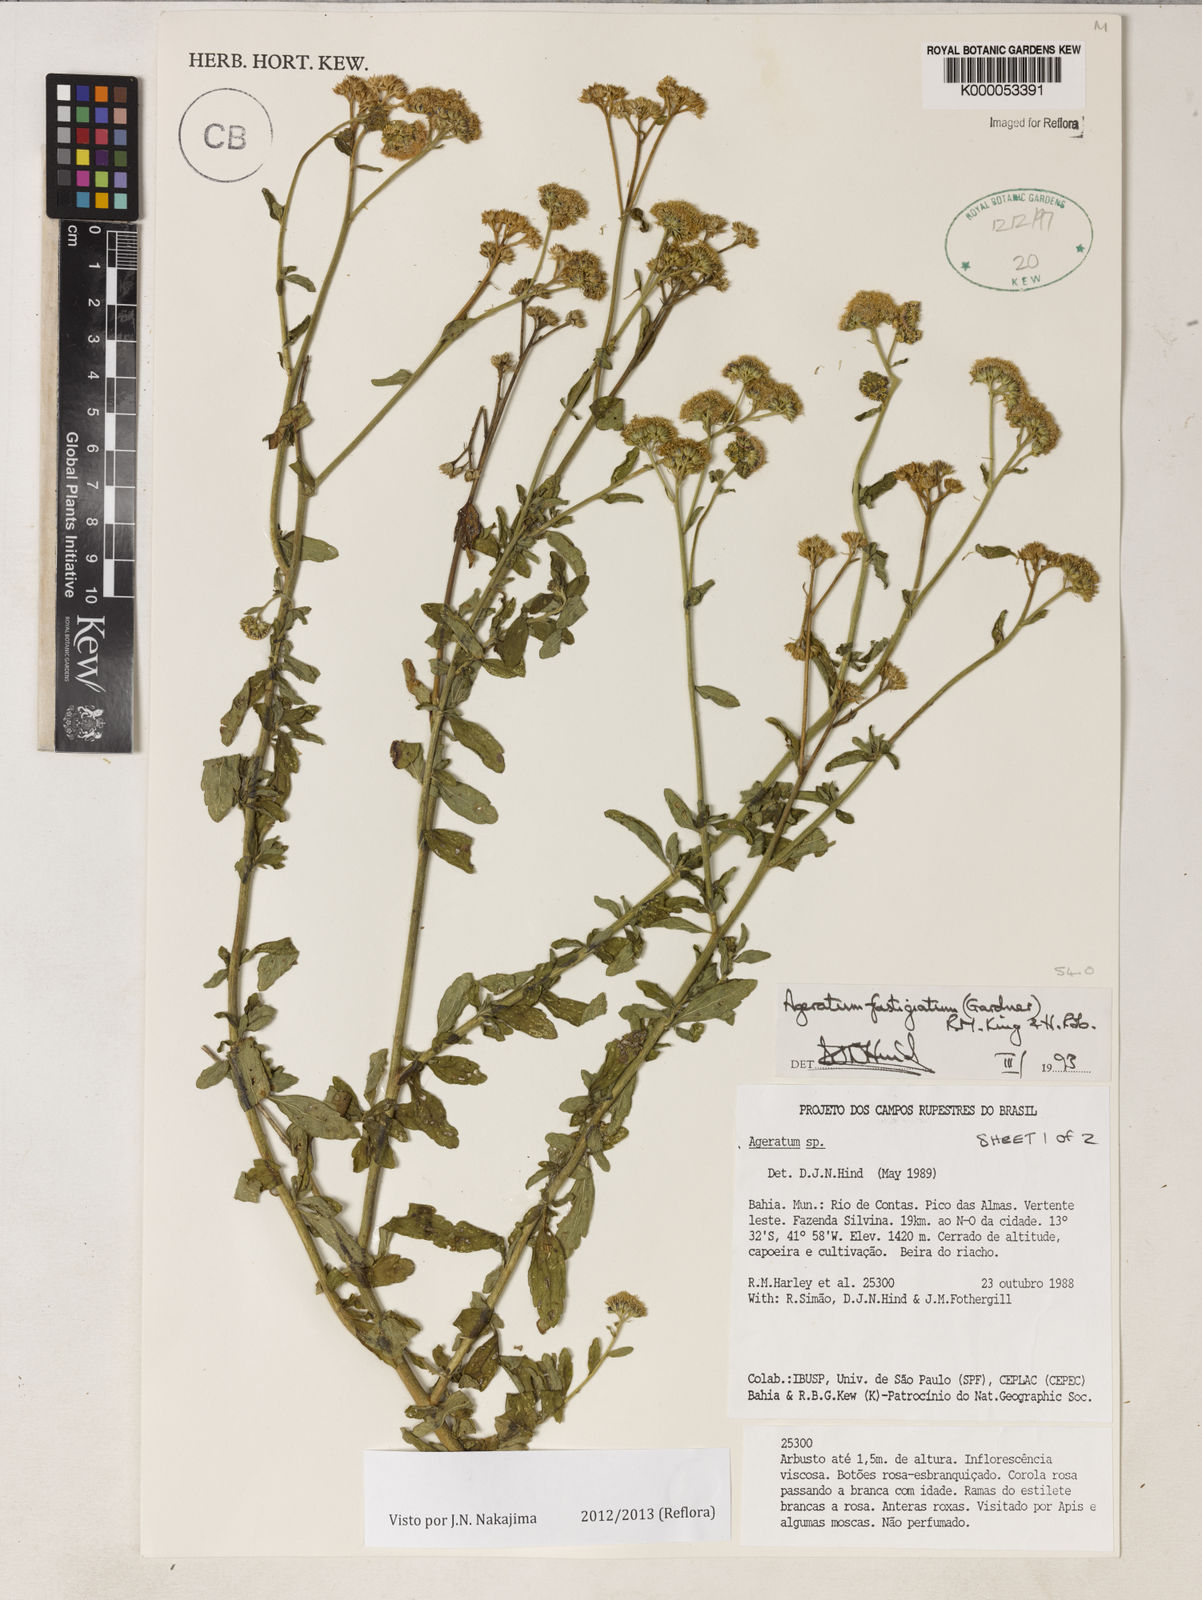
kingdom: Plantae
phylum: Tracheophyta
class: Magnoliopsida
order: Asterales
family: Asteraceae
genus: Ageratum
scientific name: Ageratum fastigiatum
